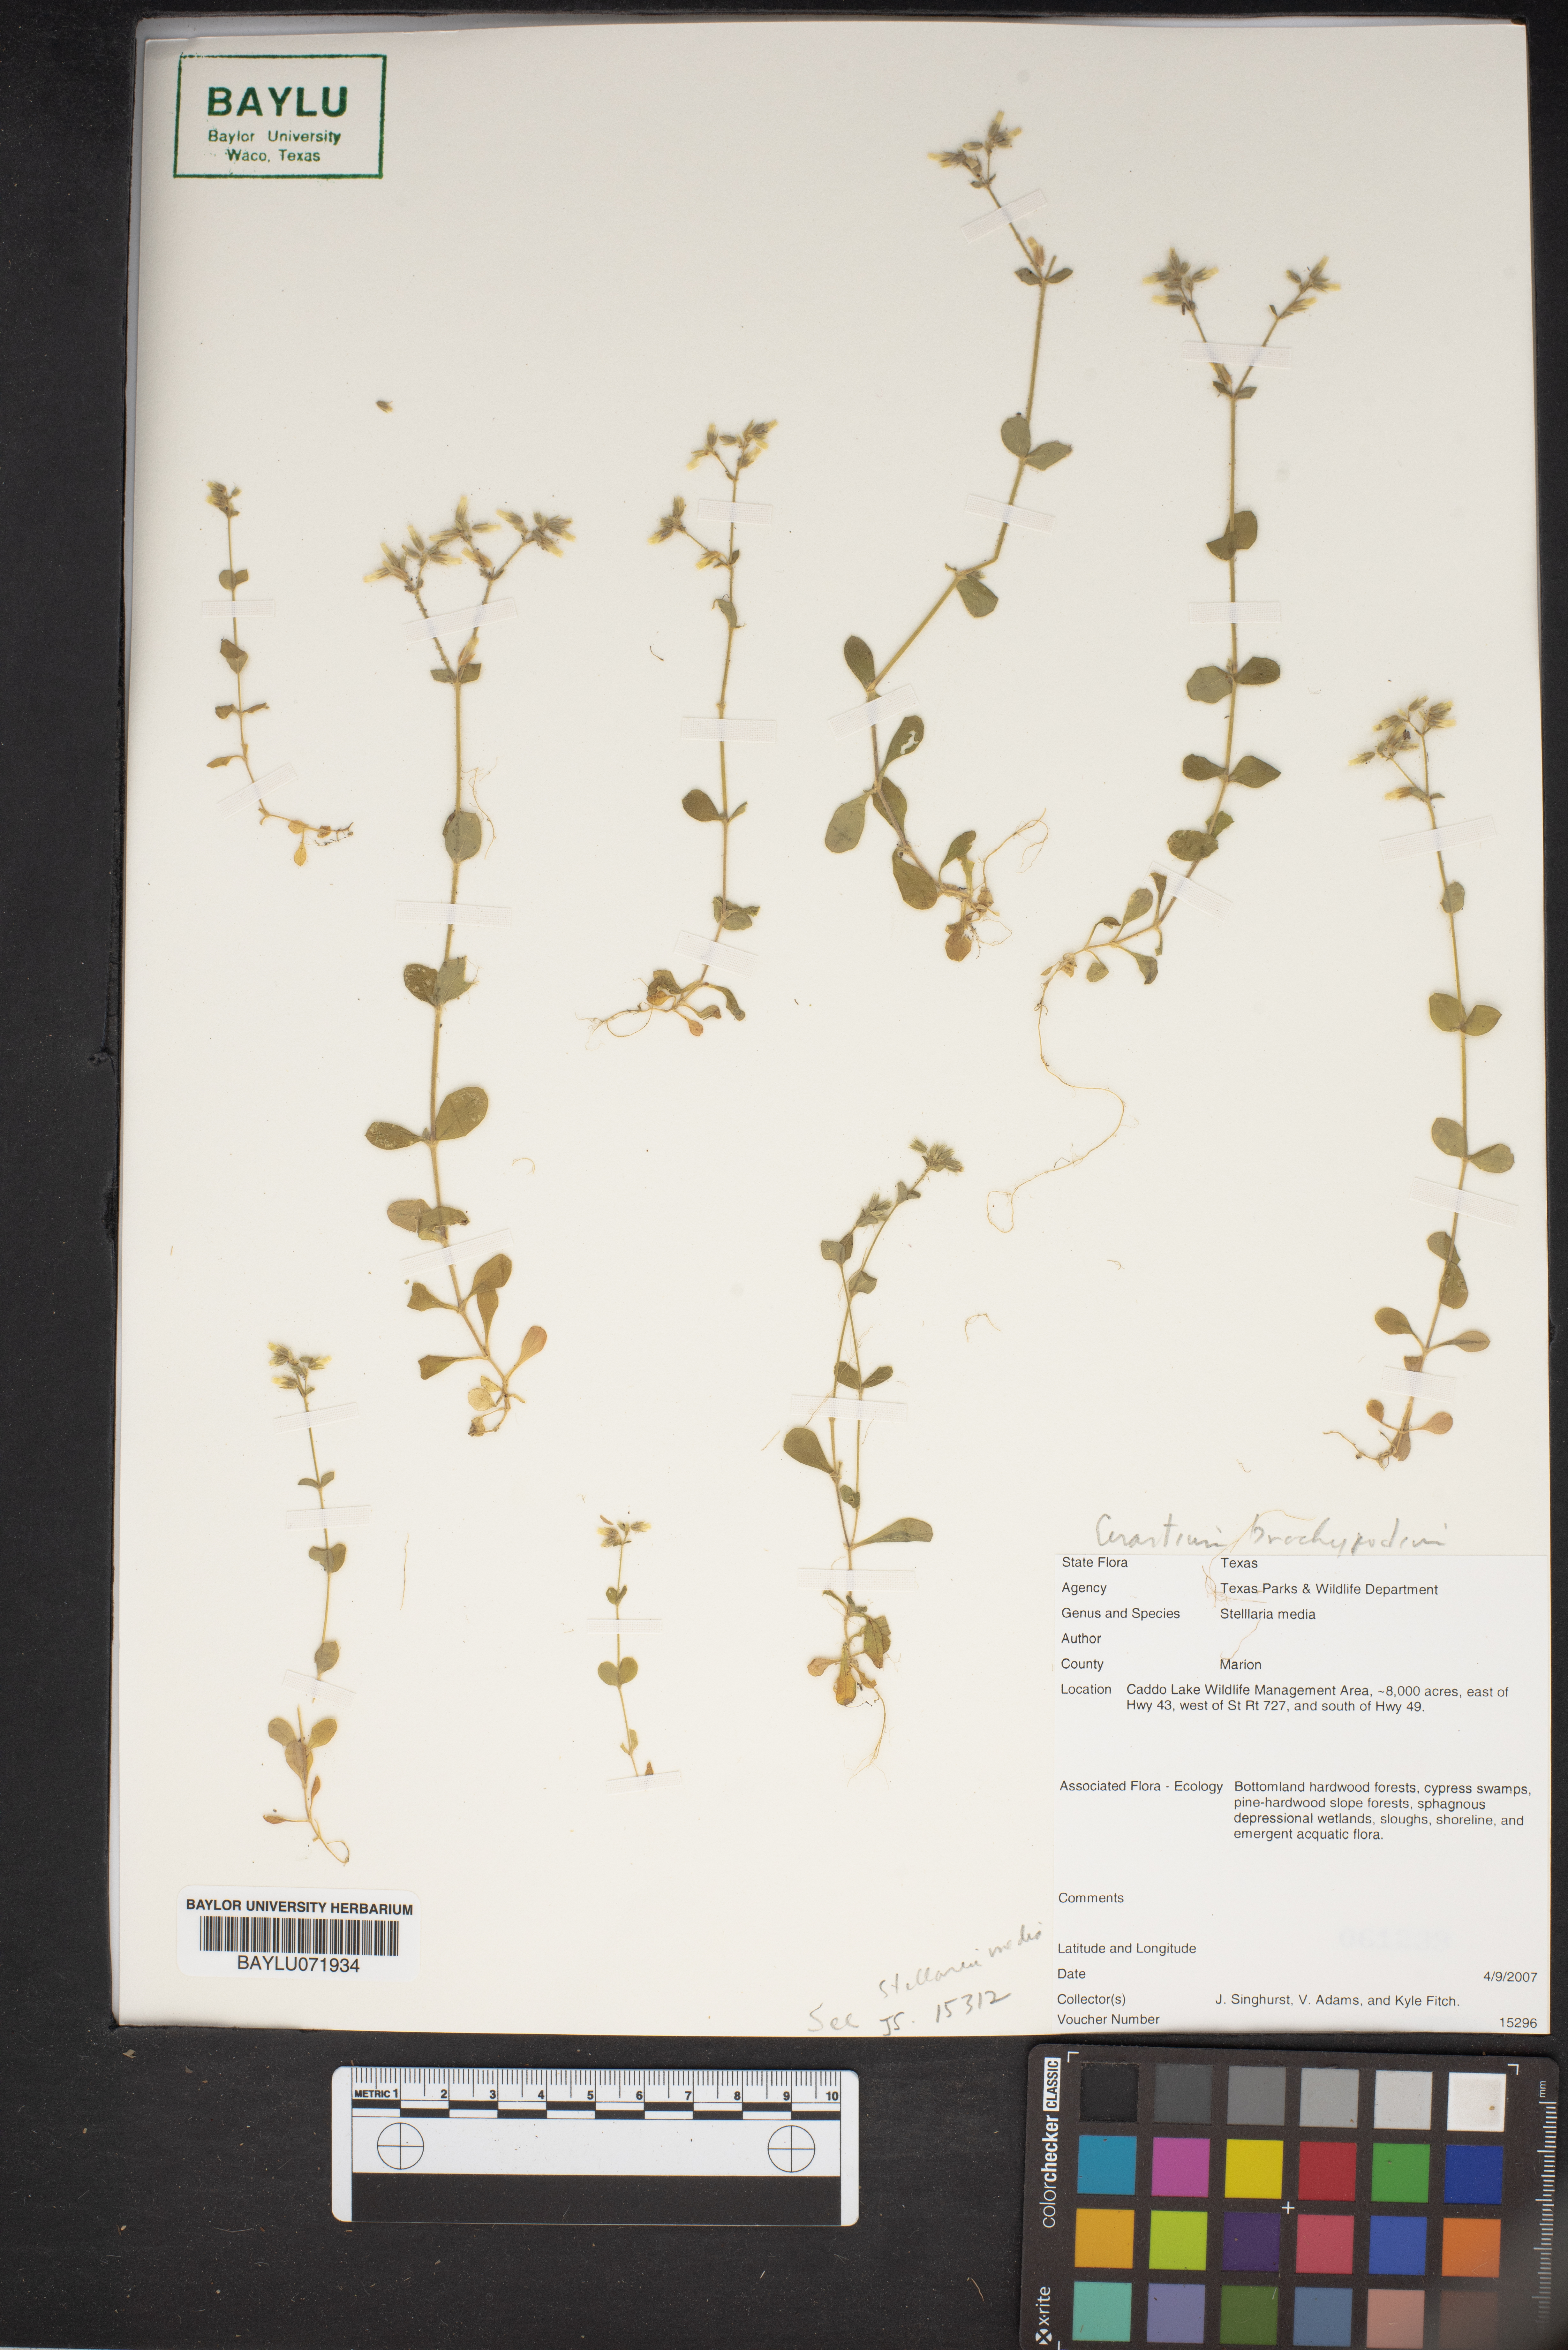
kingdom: Plantae
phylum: Tracheophyta
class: Magnoliopsida
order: Caryophyllales
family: Caryophyllaceae
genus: Stellaria
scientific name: Stellaria media
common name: Common chickweed
